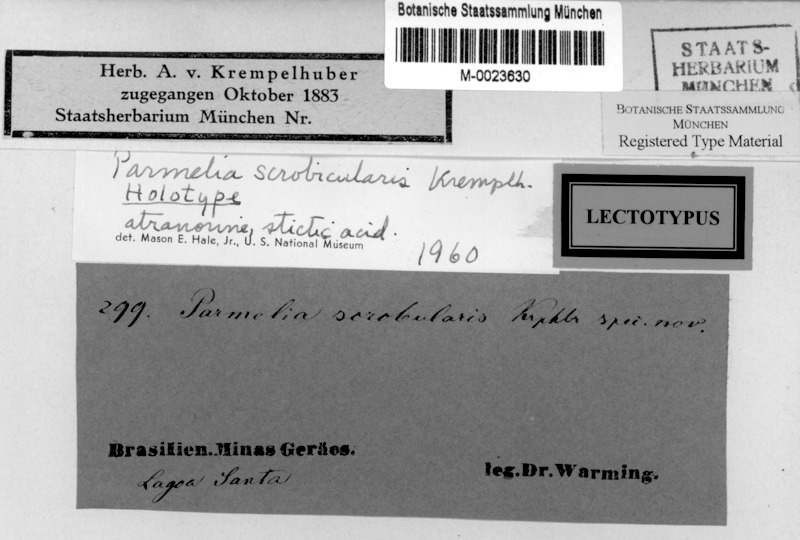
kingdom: Fungi
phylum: Ascomycota
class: Lecanoromycetes
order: Lecanorales
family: Parmeliaceae
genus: Crespoa
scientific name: Crespoa scrobicularis
